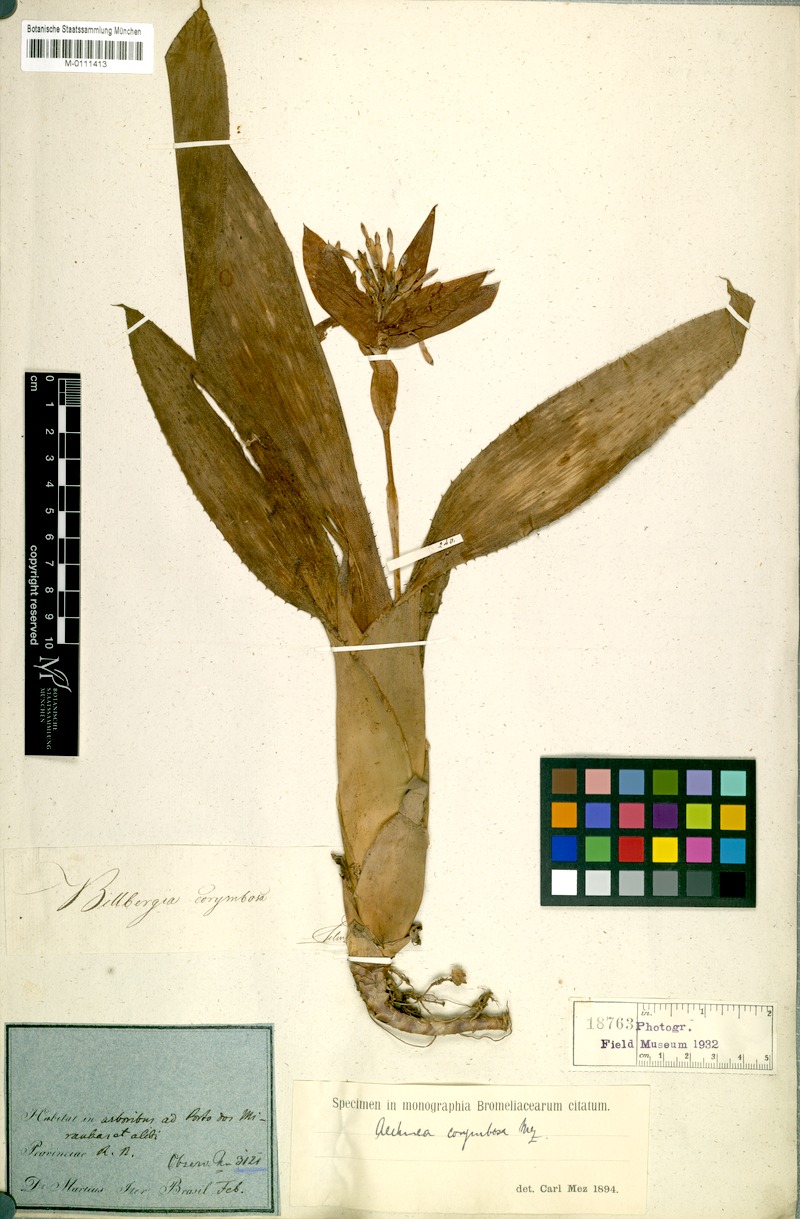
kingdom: Plantae
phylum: Tracheophyta
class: Liliopsida
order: Poales
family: Bromeliaceae
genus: Aechmea
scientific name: Aechmea corymbosa
